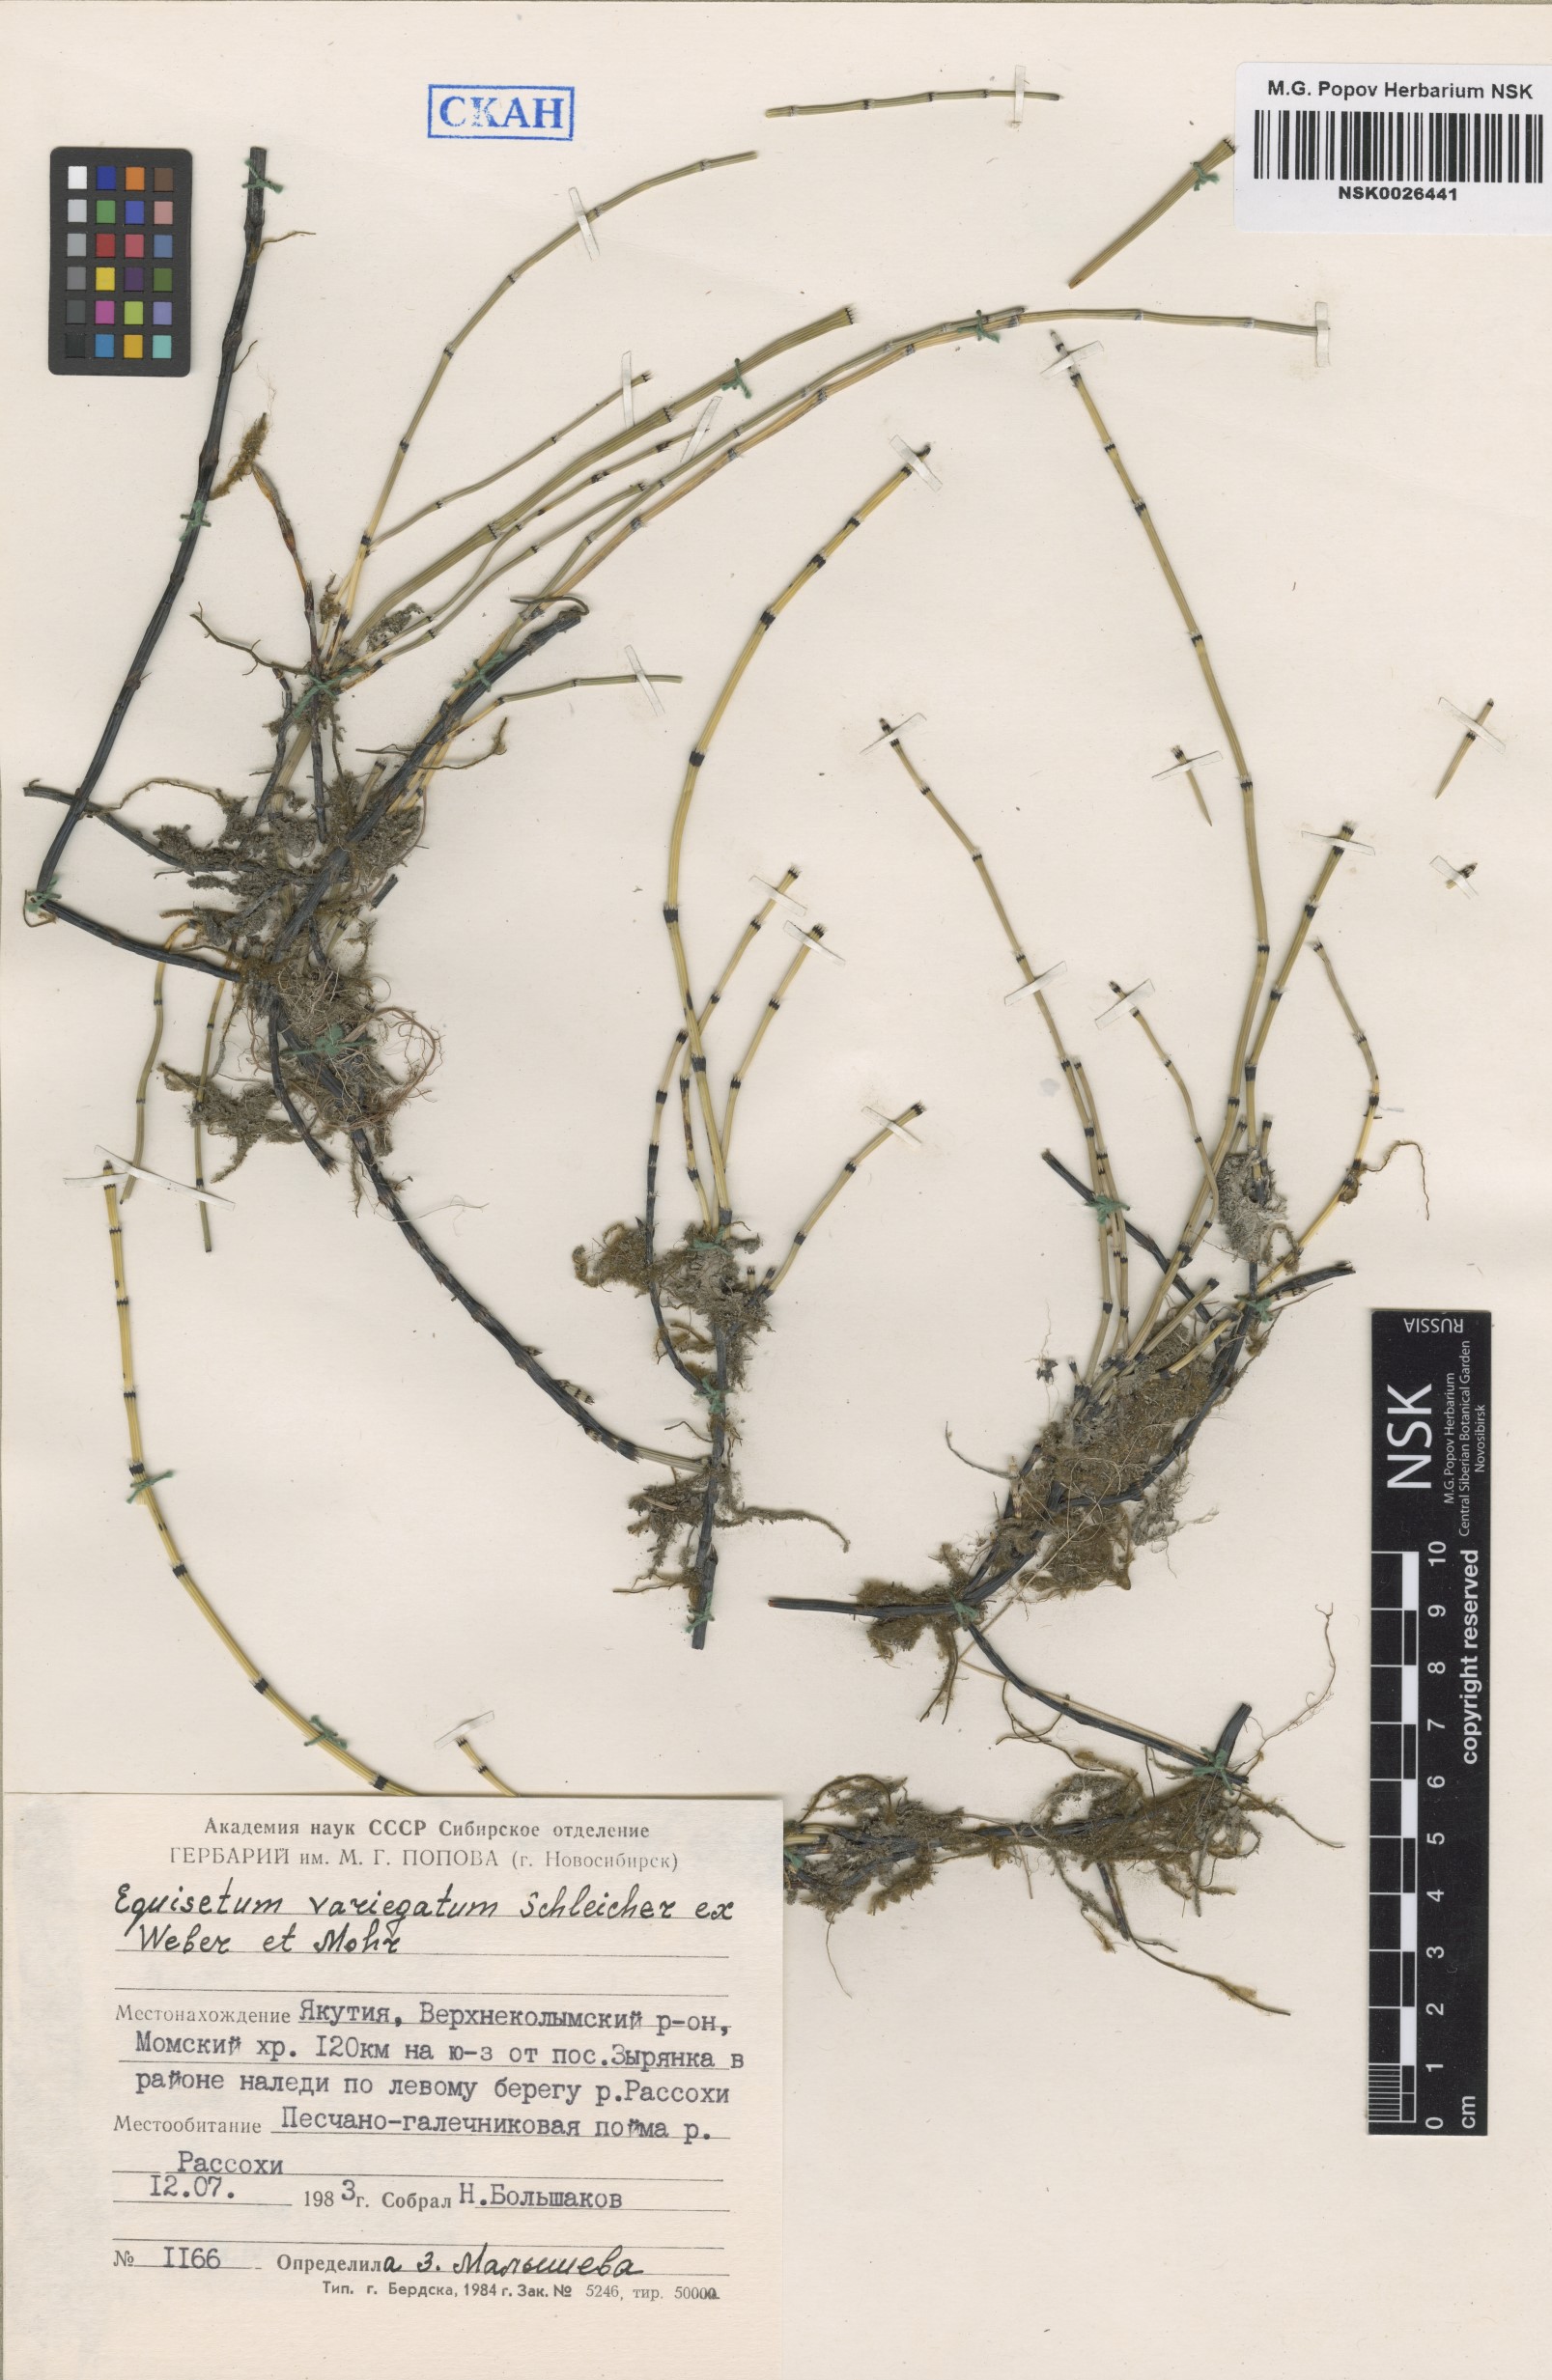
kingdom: Plantae
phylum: Tracheophyta
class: Polypodiopsida
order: Equisetales
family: Equisetaceae
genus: Equisetum
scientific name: Equisetum variegatum
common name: Variegated horsetail
